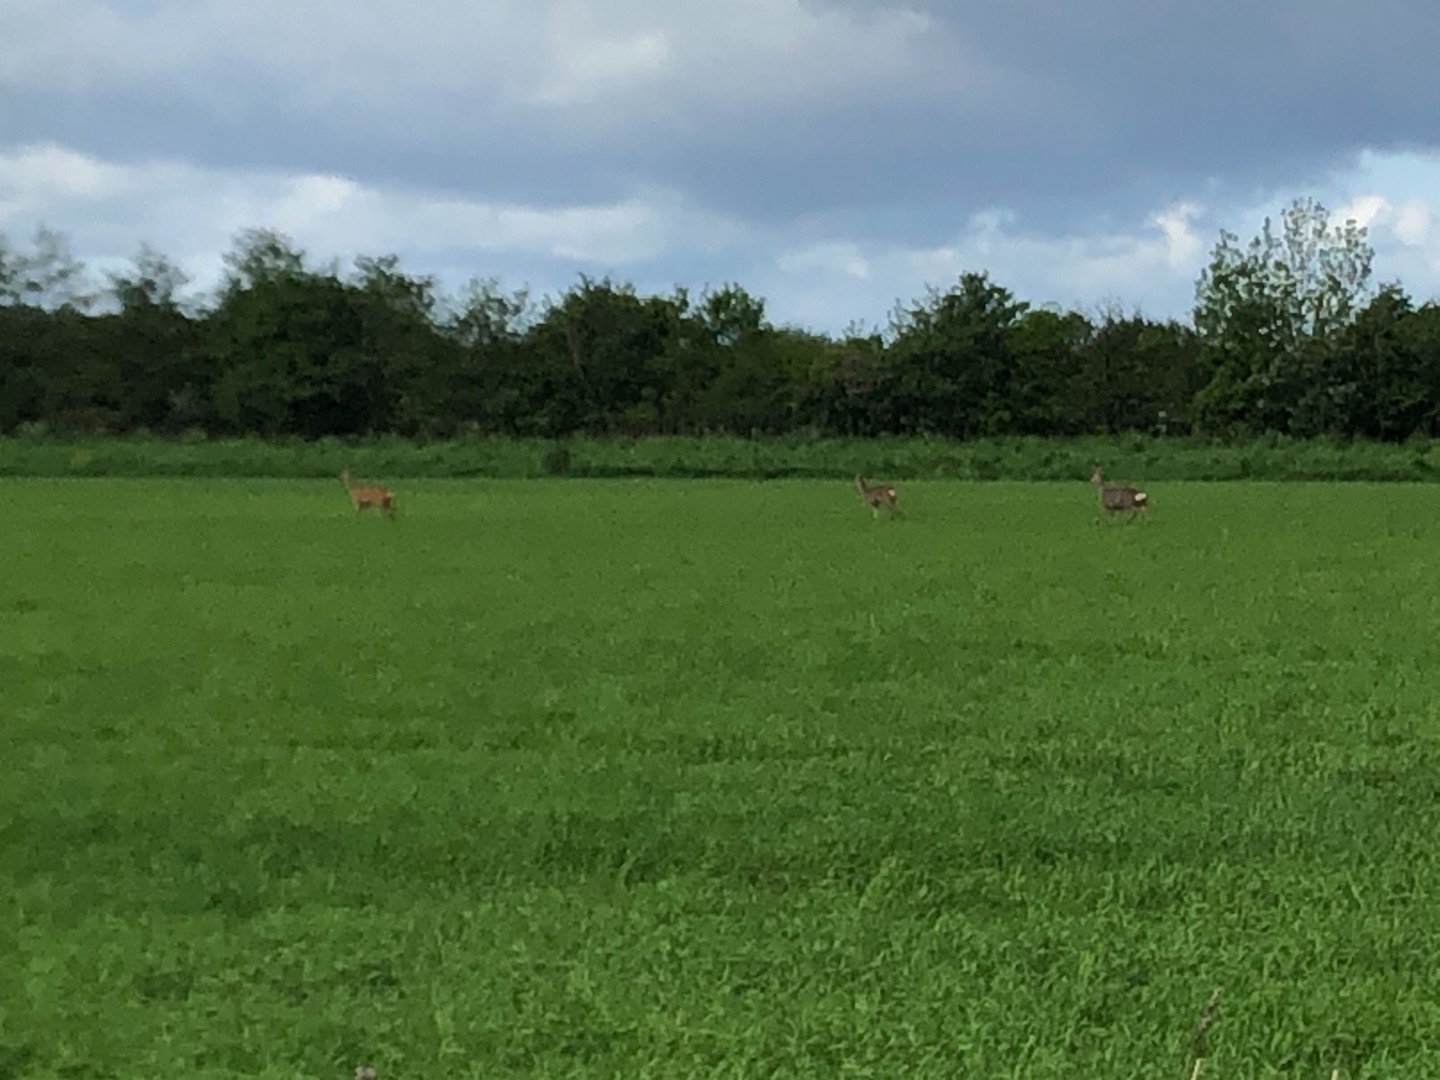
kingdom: Animalia
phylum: Chordata
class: Mammalia
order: Artiodactyla
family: Cervidae
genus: Capreolus
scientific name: Capreolus capreolus
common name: Rådyr
